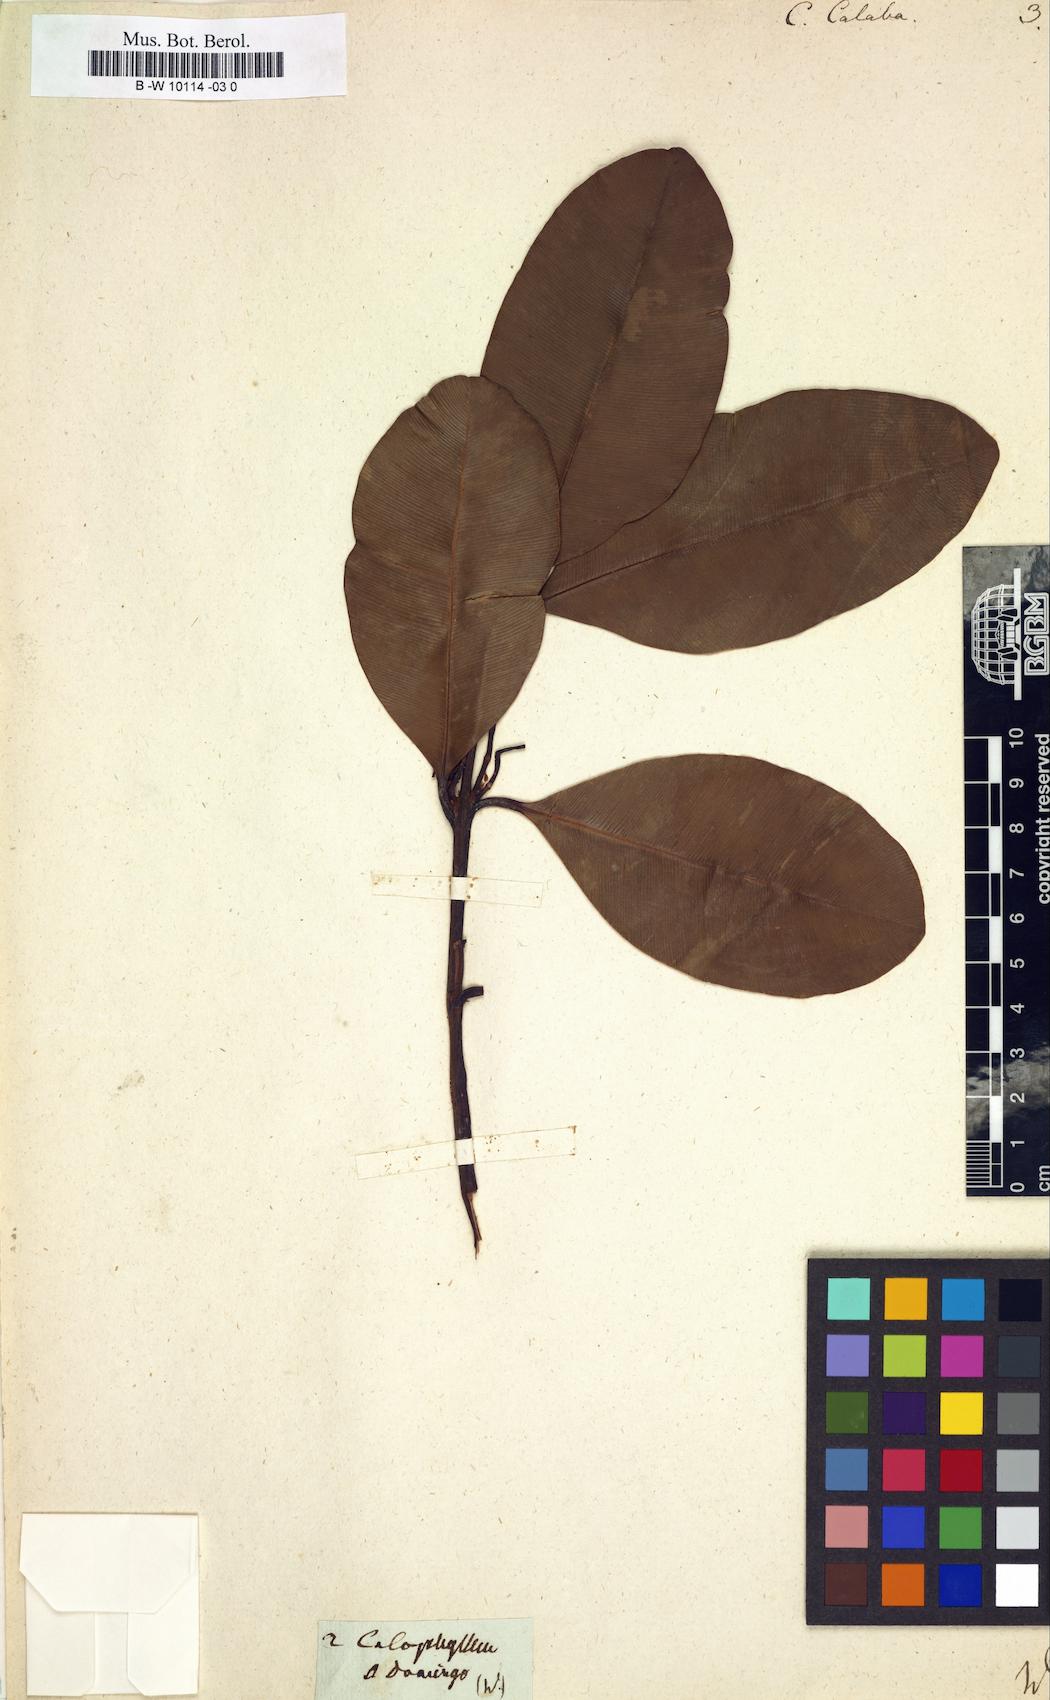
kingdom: Plantae
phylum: Tracheophyta
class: Magnoliopsida
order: Malpighiales
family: Calophyllaceae
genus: Calophyllum
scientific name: Calophyllum calaba
